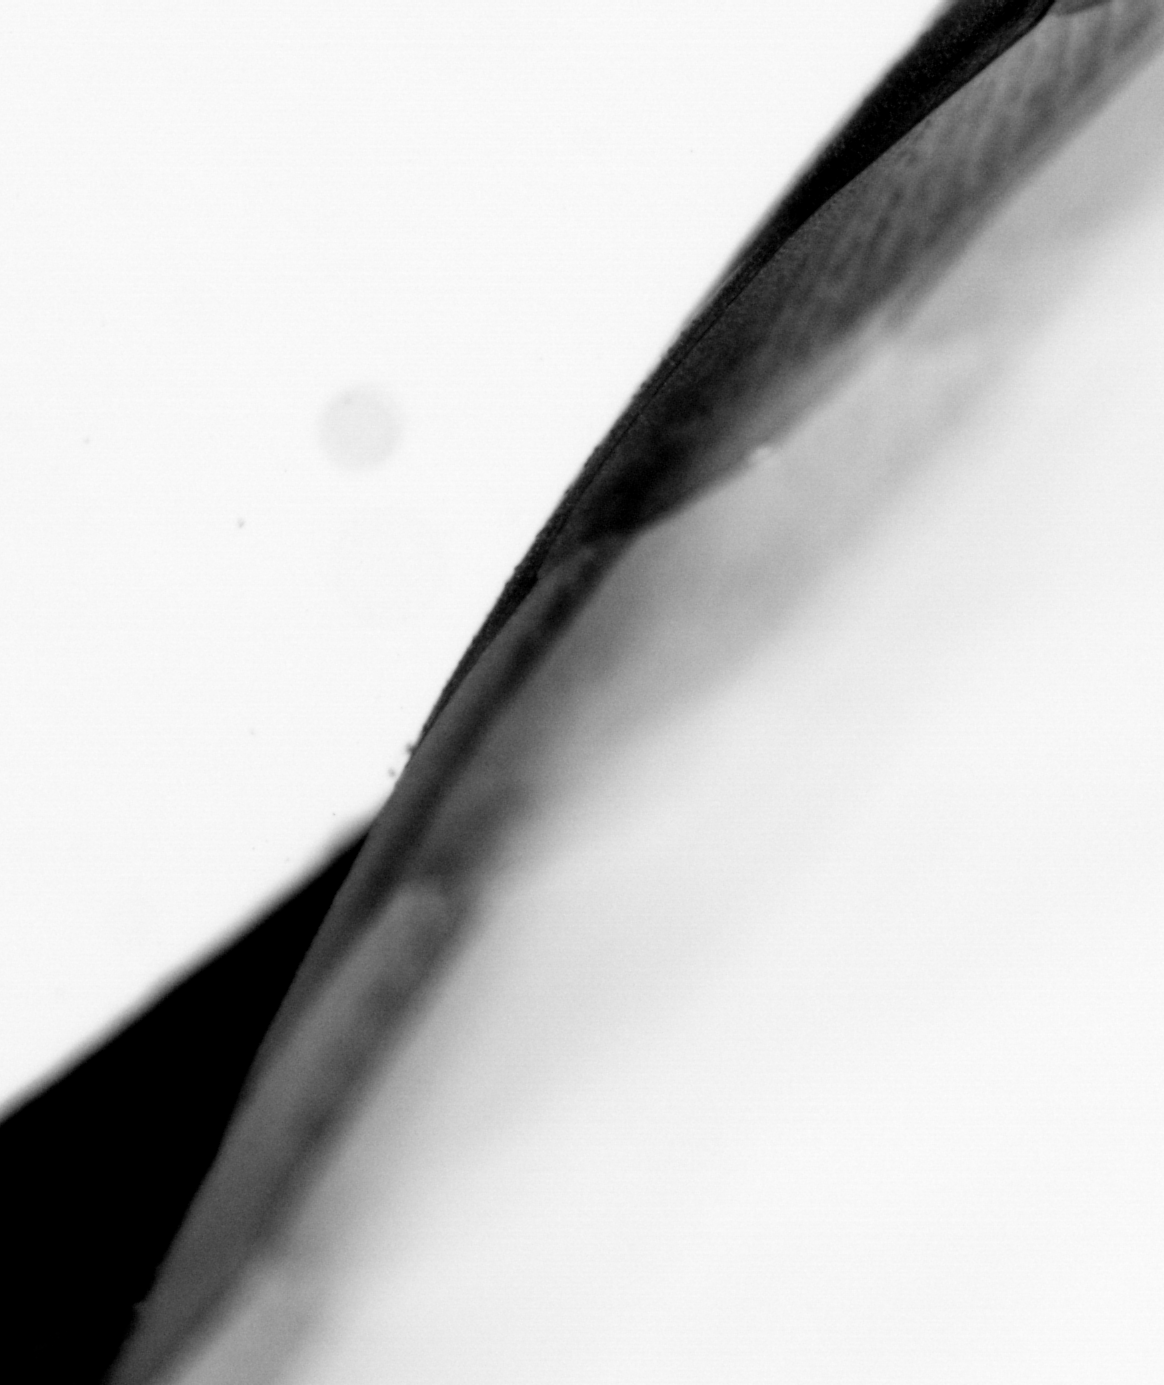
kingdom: Animalia
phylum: Chordata
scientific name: Chordata
